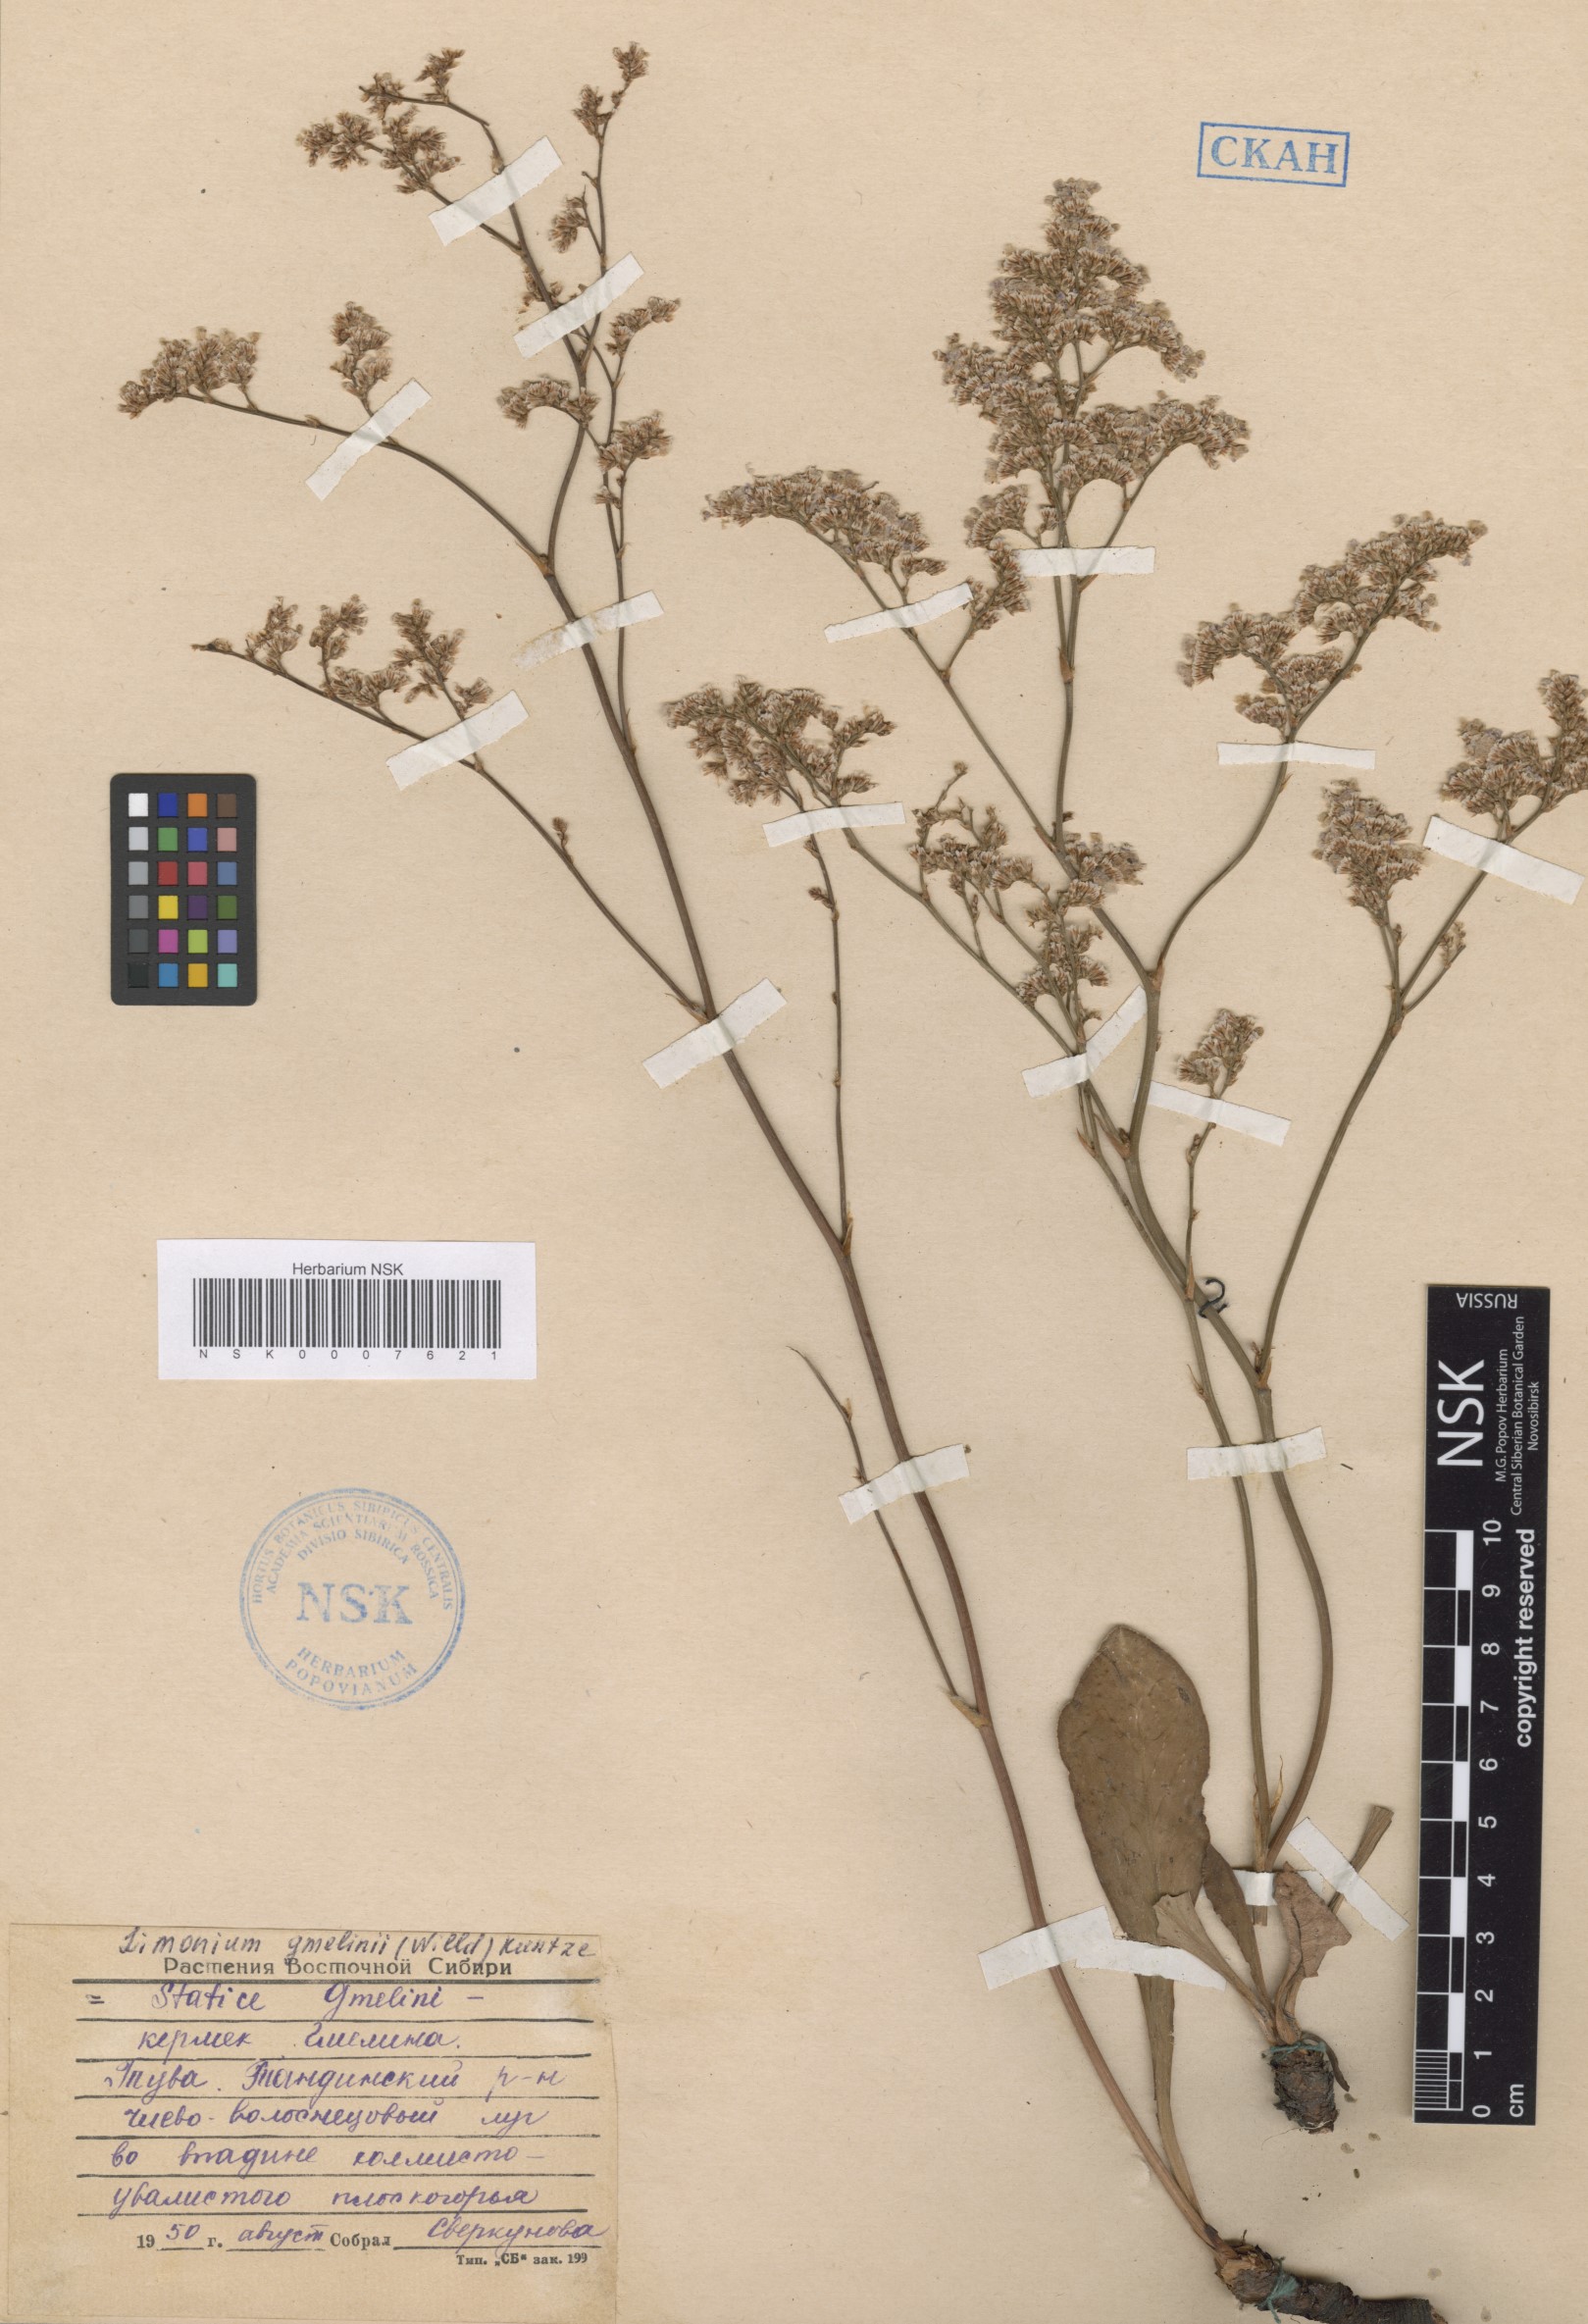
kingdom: Plantae
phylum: Tracheophyta
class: Magnoliopsida
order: Caryophyllales
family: Plumbaginaceae
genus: Limonium
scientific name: Limonium gmelini
